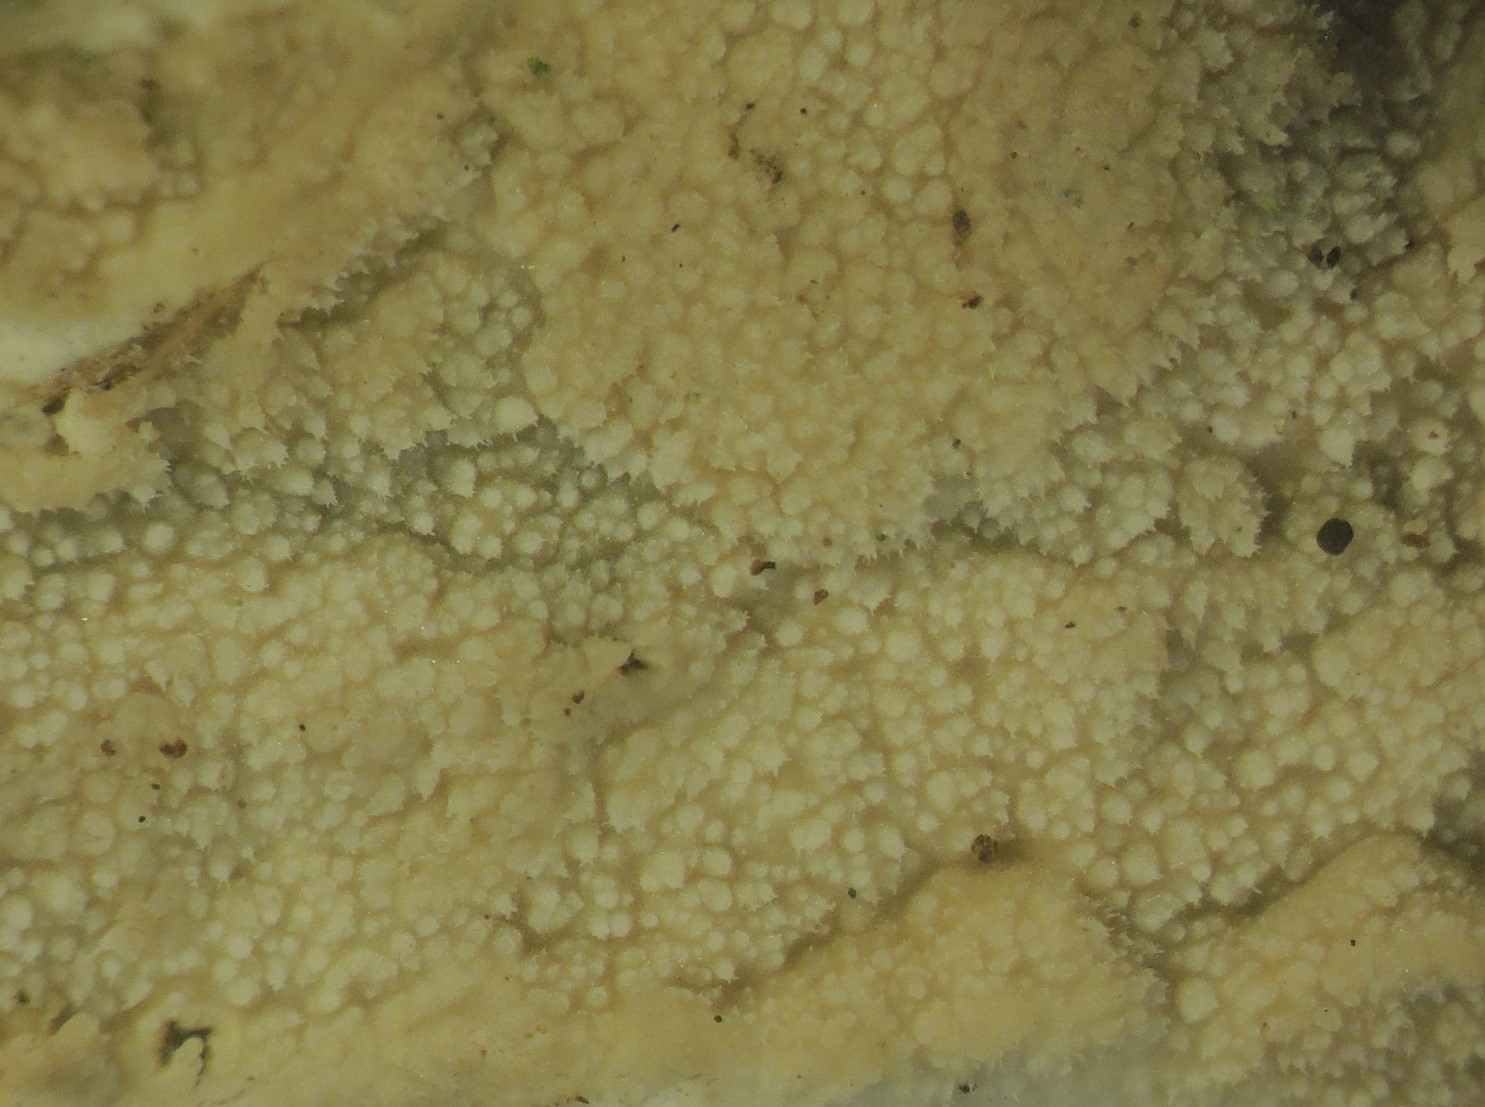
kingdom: Fungi
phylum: Basidiomycota
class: Agaricomycetes
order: Polyporales
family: Phanerochaetaceae
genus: Hyphodermella
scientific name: Hyphodermella corrugata
